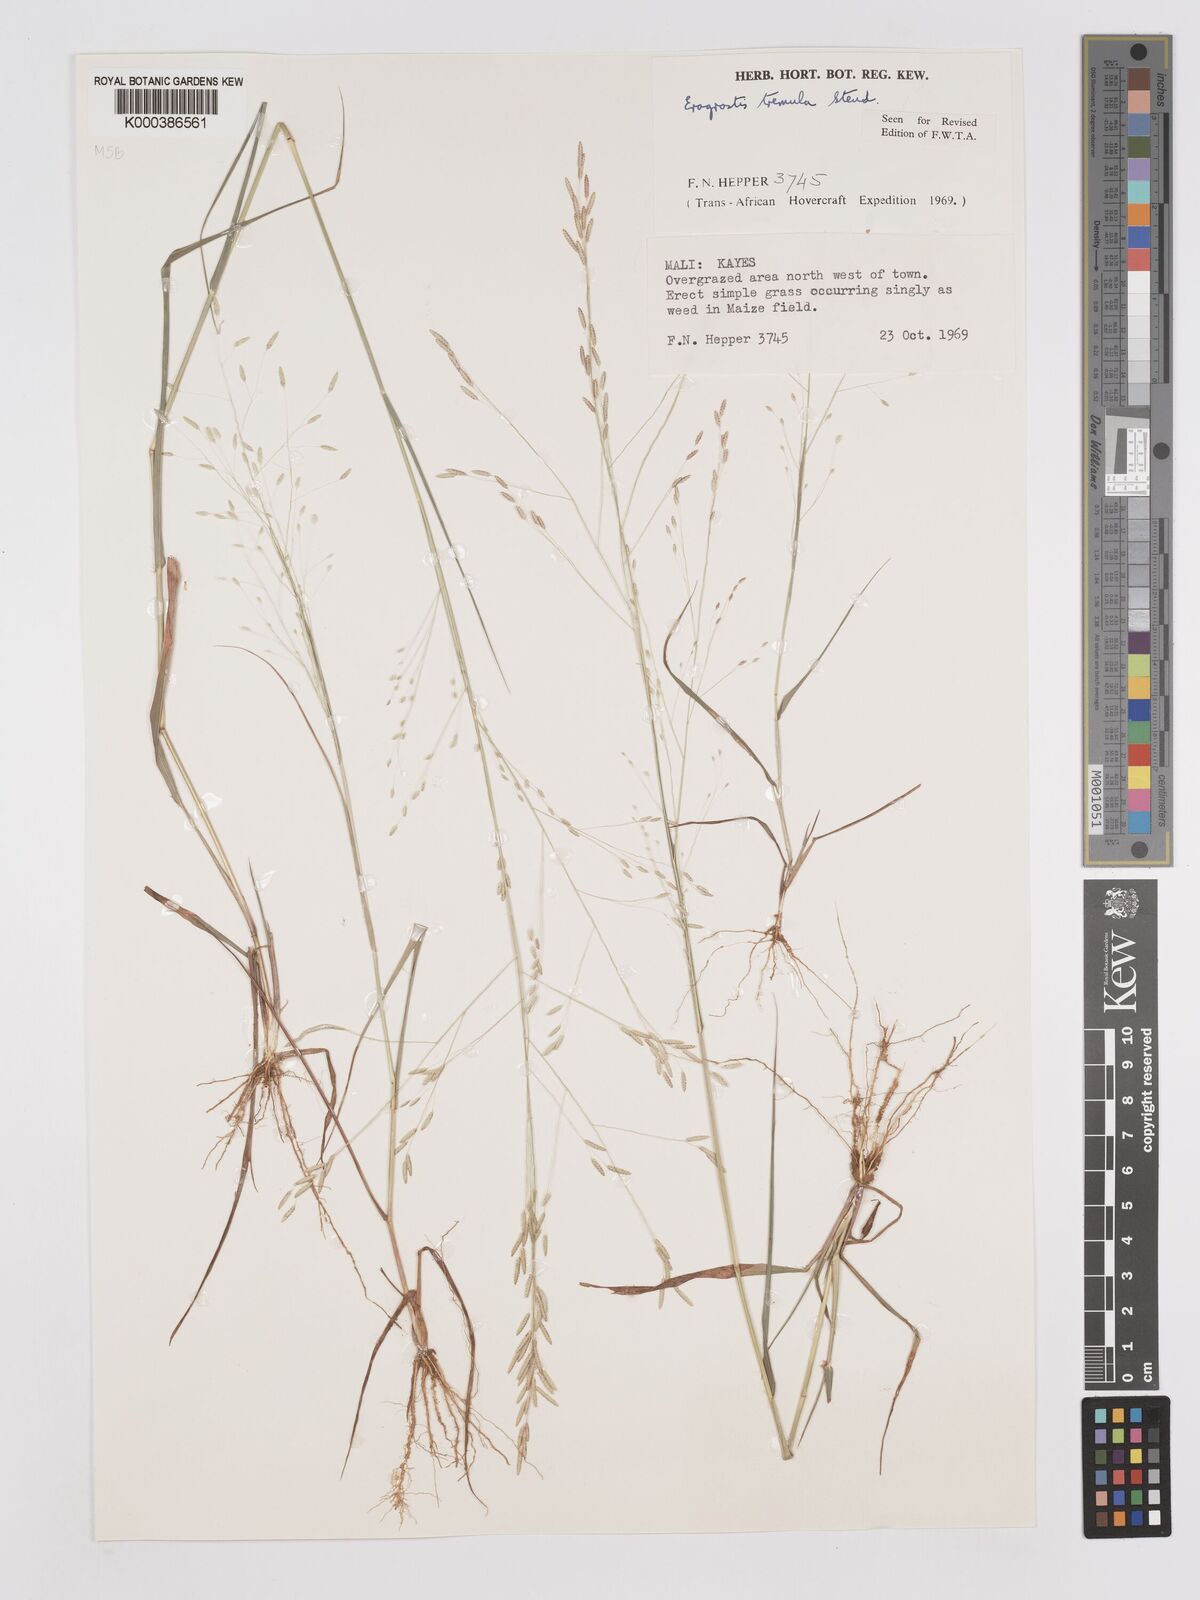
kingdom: Plantae
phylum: Tracheophyta
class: Liliopsida
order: Poales
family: Poaceae
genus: Eragrostis
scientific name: Eragrostis tremula
